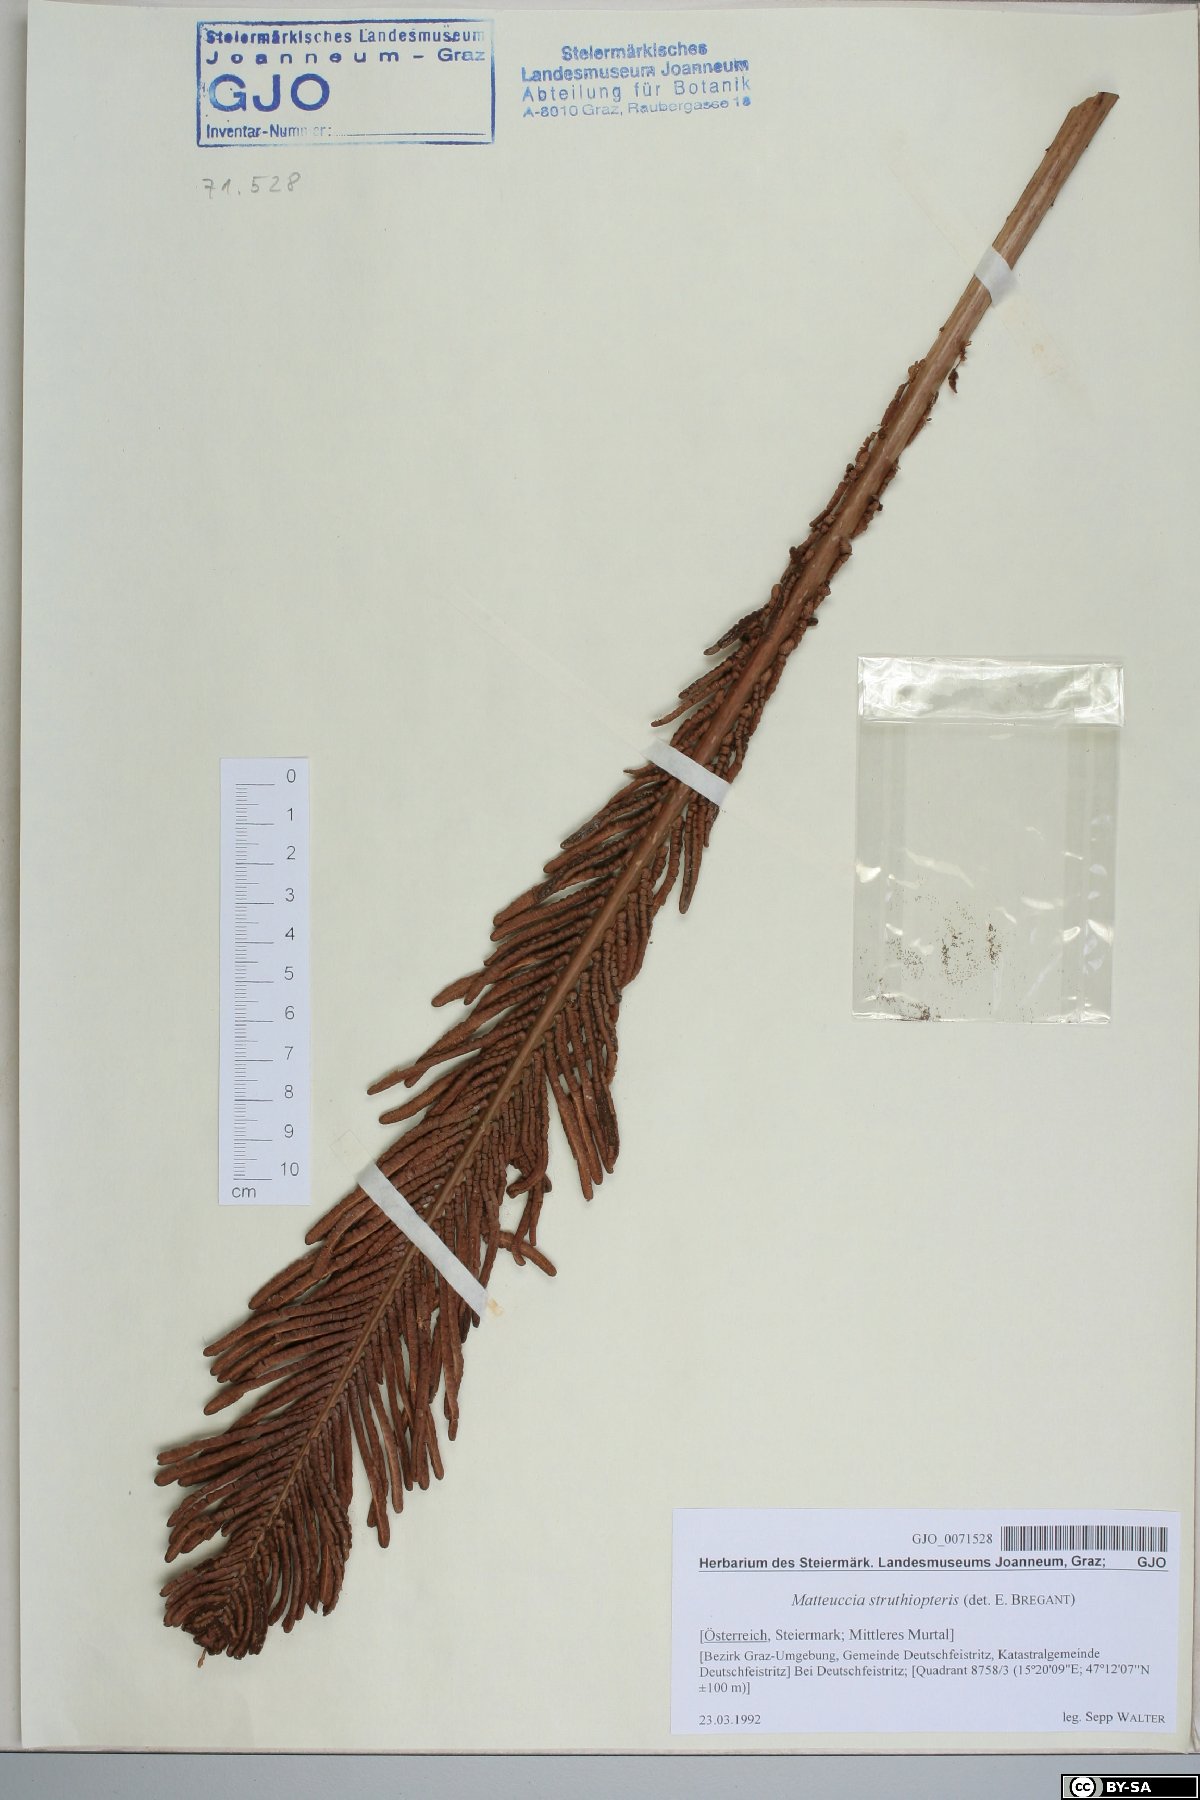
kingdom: Plantae
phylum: Tracheophyta
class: Polypodiopsida
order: Polypodiales
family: Onocleaceae
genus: Matteuccia
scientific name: Matteuccia struthiopteris
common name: Ostrich fern
